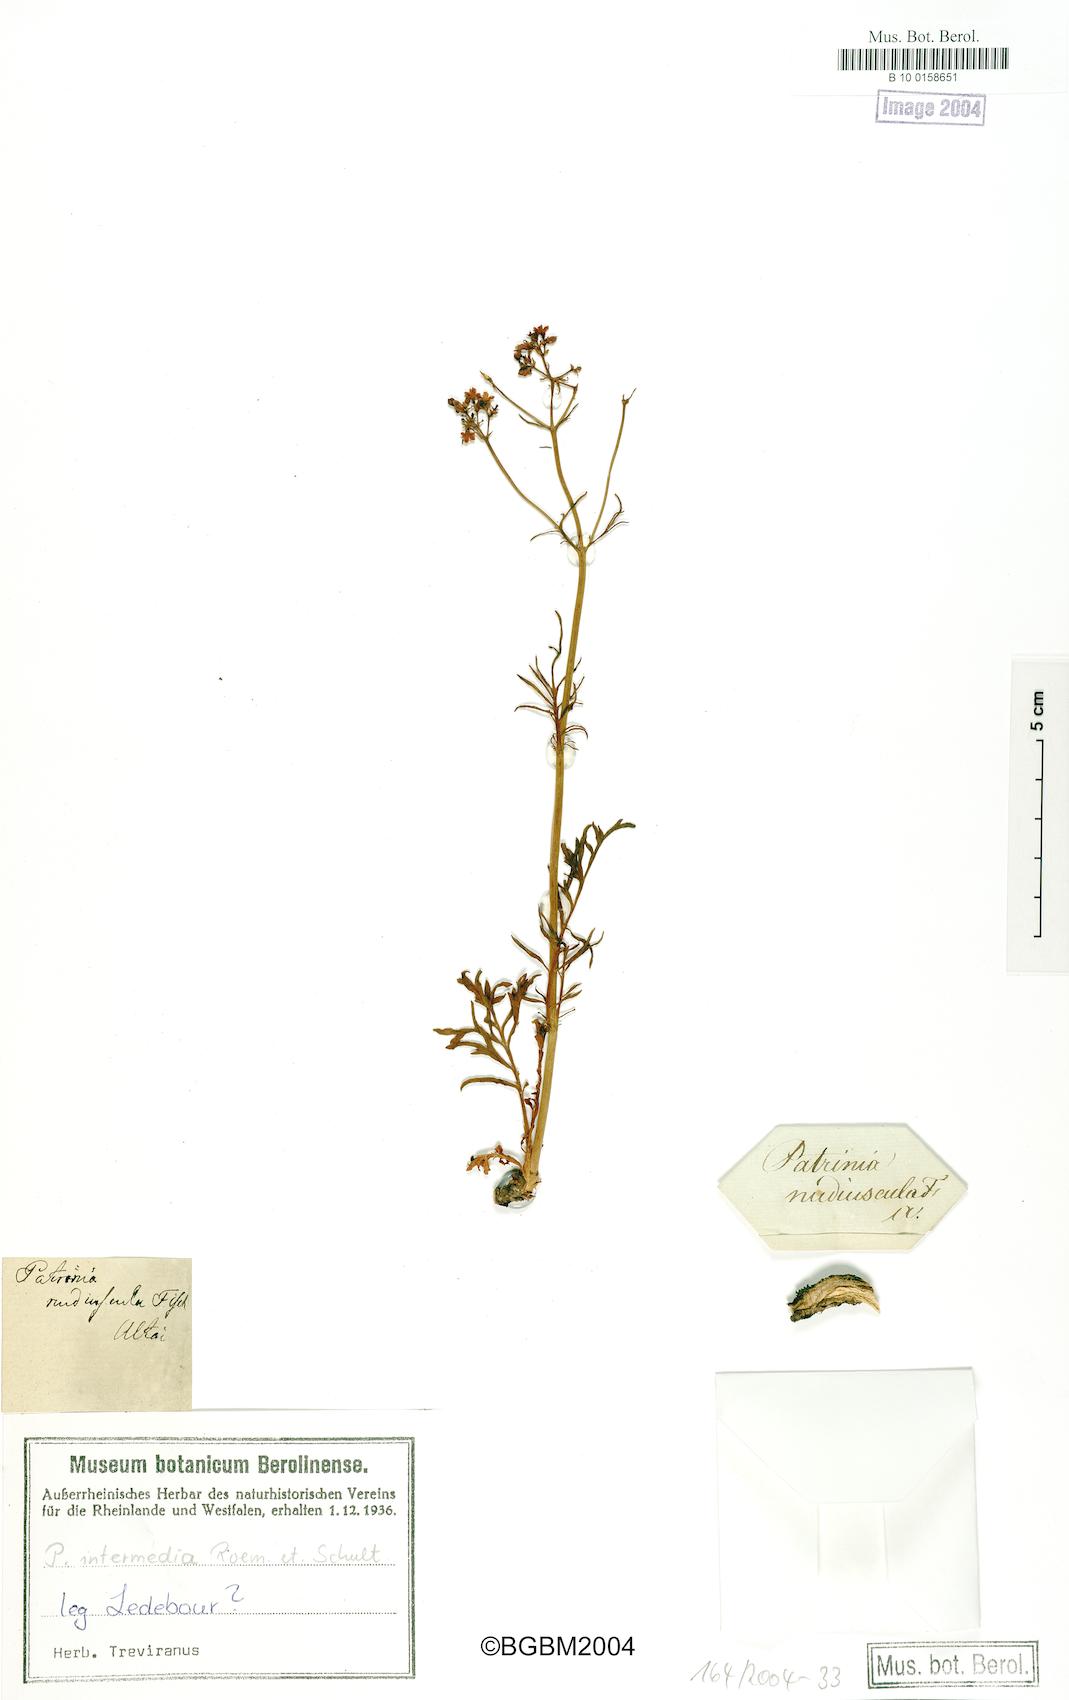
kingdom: Plantae
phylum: Tracheophyta
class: Magnoliopsida
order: Dipsacales
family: Caprifoliaceae
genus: Patrinia
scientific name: Patrinia intermedia
